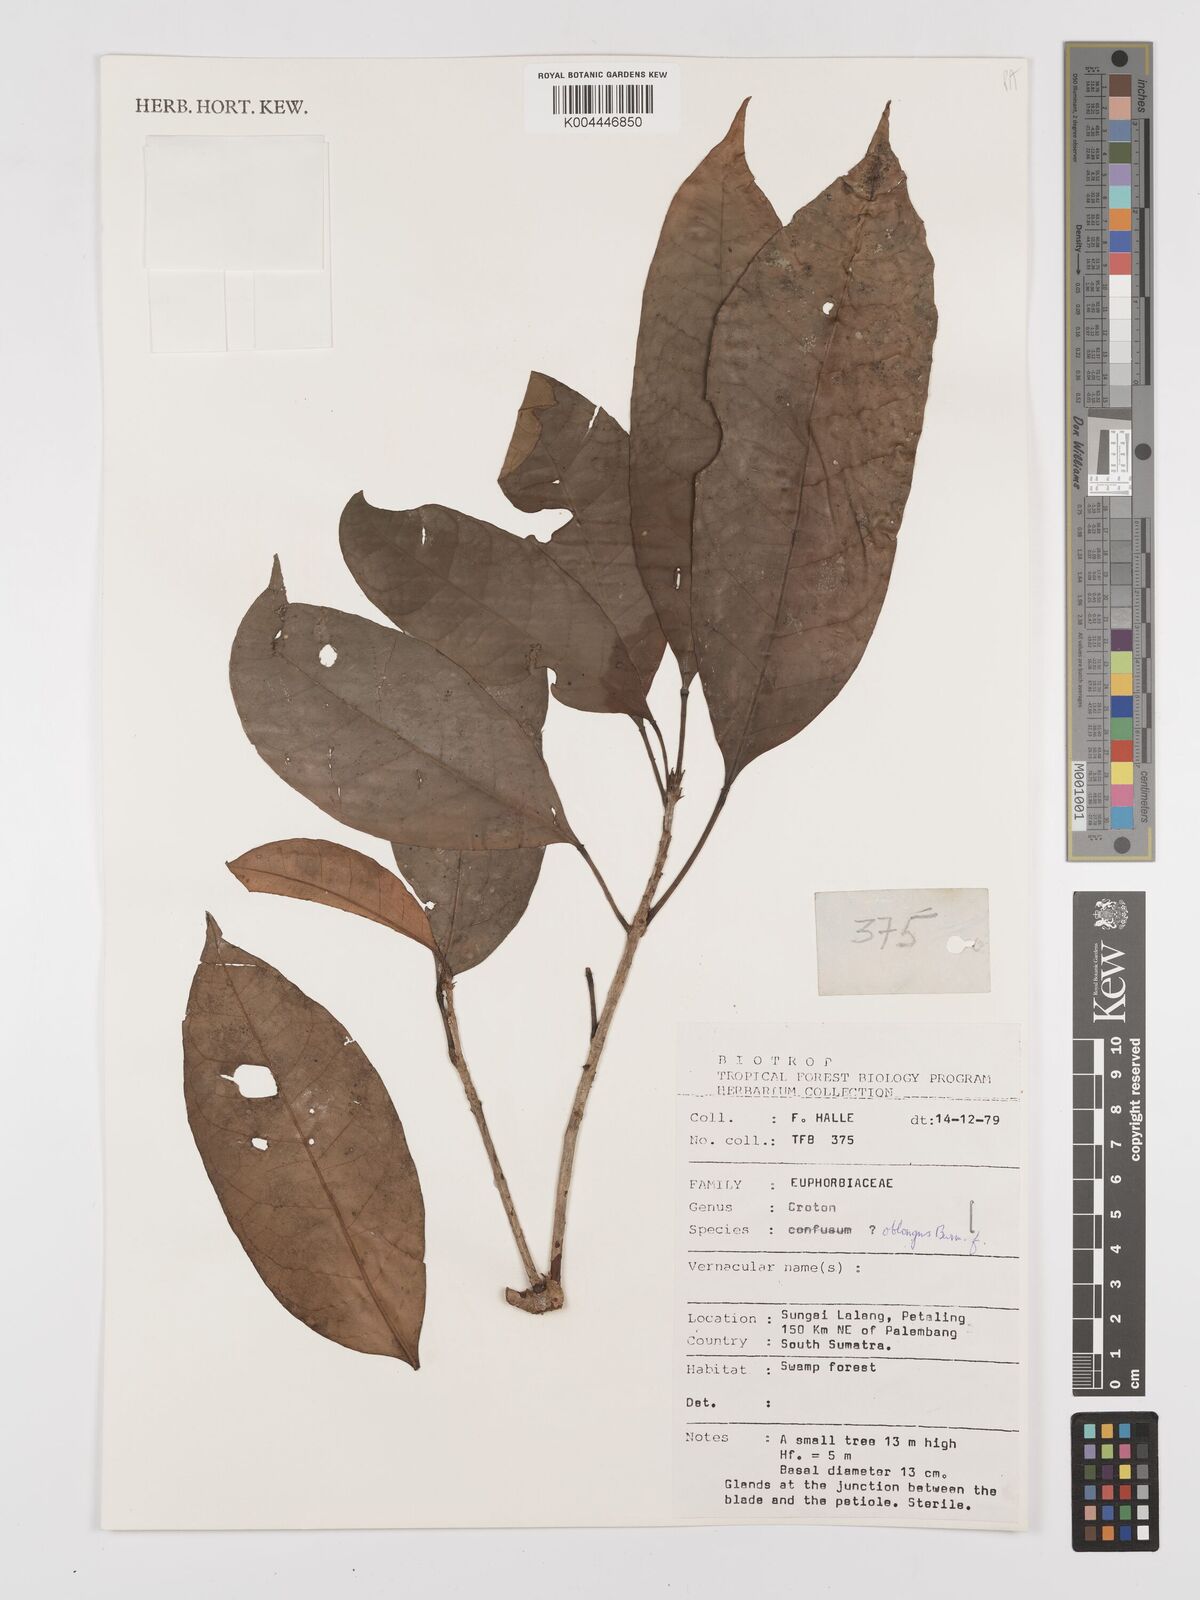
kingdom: Plantae
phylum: Tracheophyta
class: Magnoliopsida
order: Malpighiales
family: Euphorbiaceae
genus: Croton
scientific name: Croton oblongus
